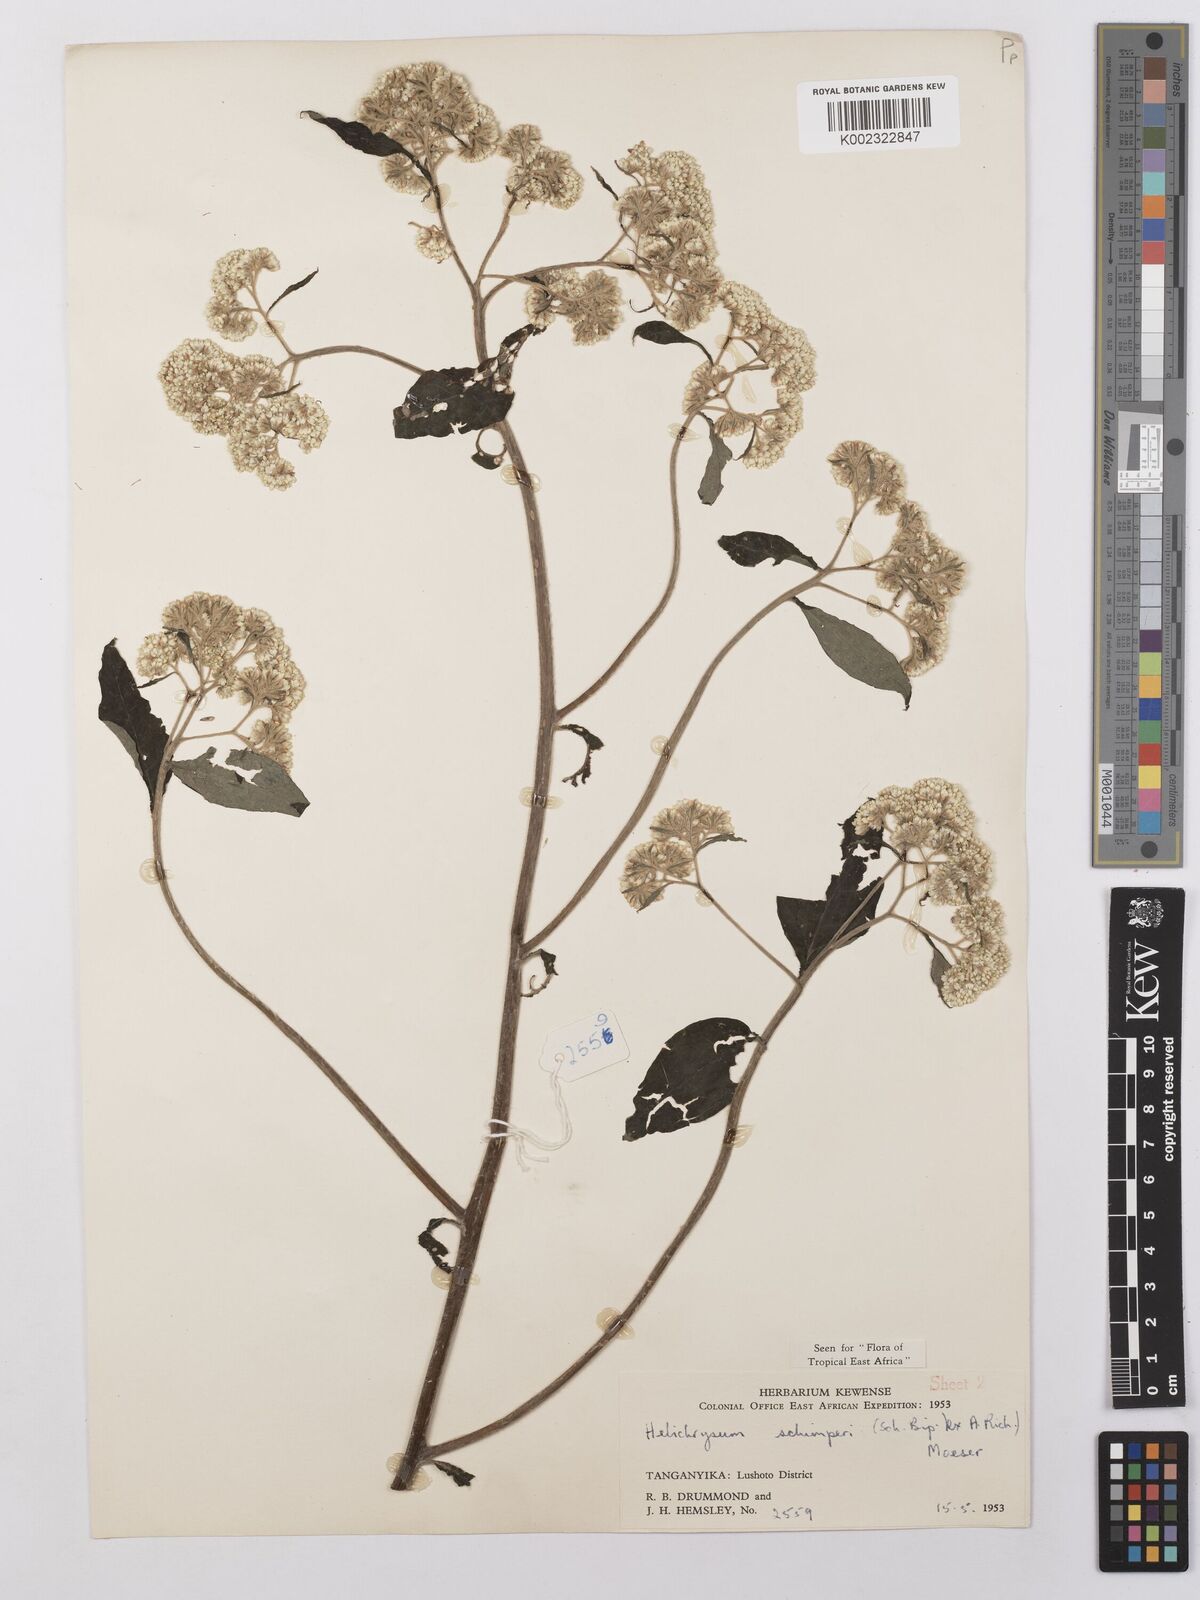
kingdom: Plantae
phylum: Tracheophyta
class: Magnoliopsida
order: Asterales
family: Asteraceae
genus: Helichrysum
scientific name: Helichrysum schimperi
